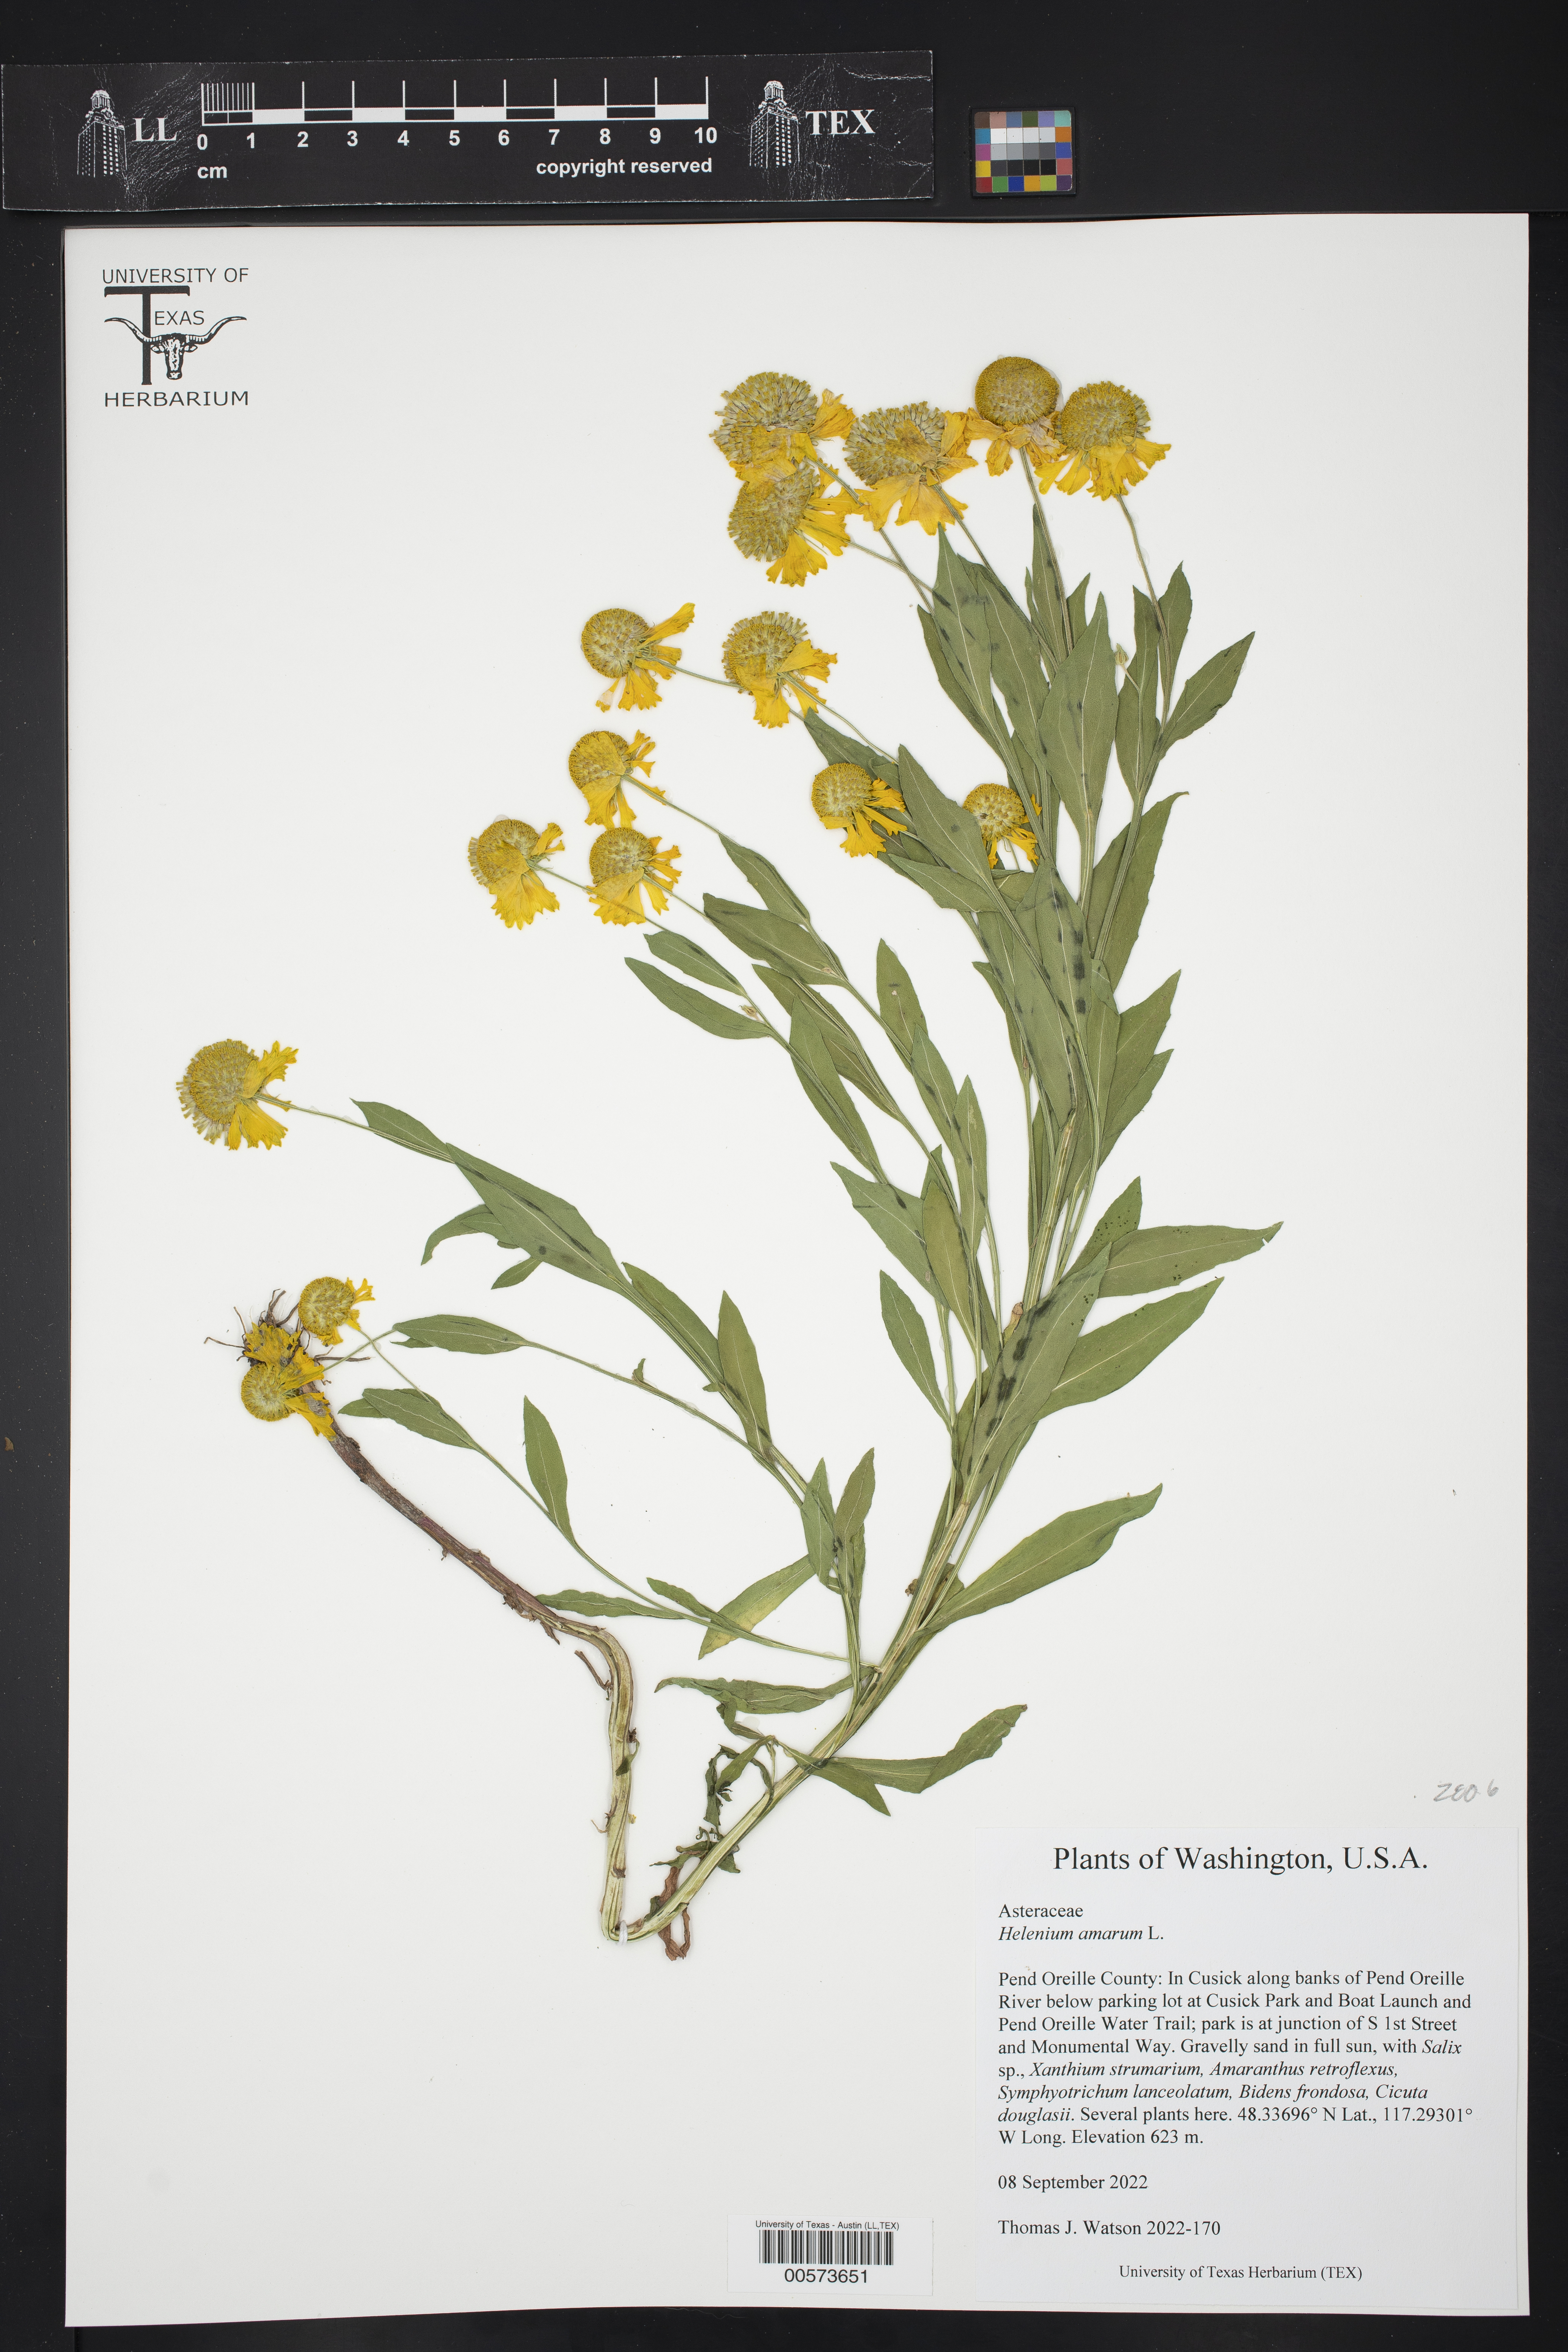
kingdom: Plantae
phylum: Tracheophyta
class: Magnoliopsida
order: Asterales
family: Asteraceae
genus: Helenium
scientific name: Helenium autumnale
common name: Sneezeweed
